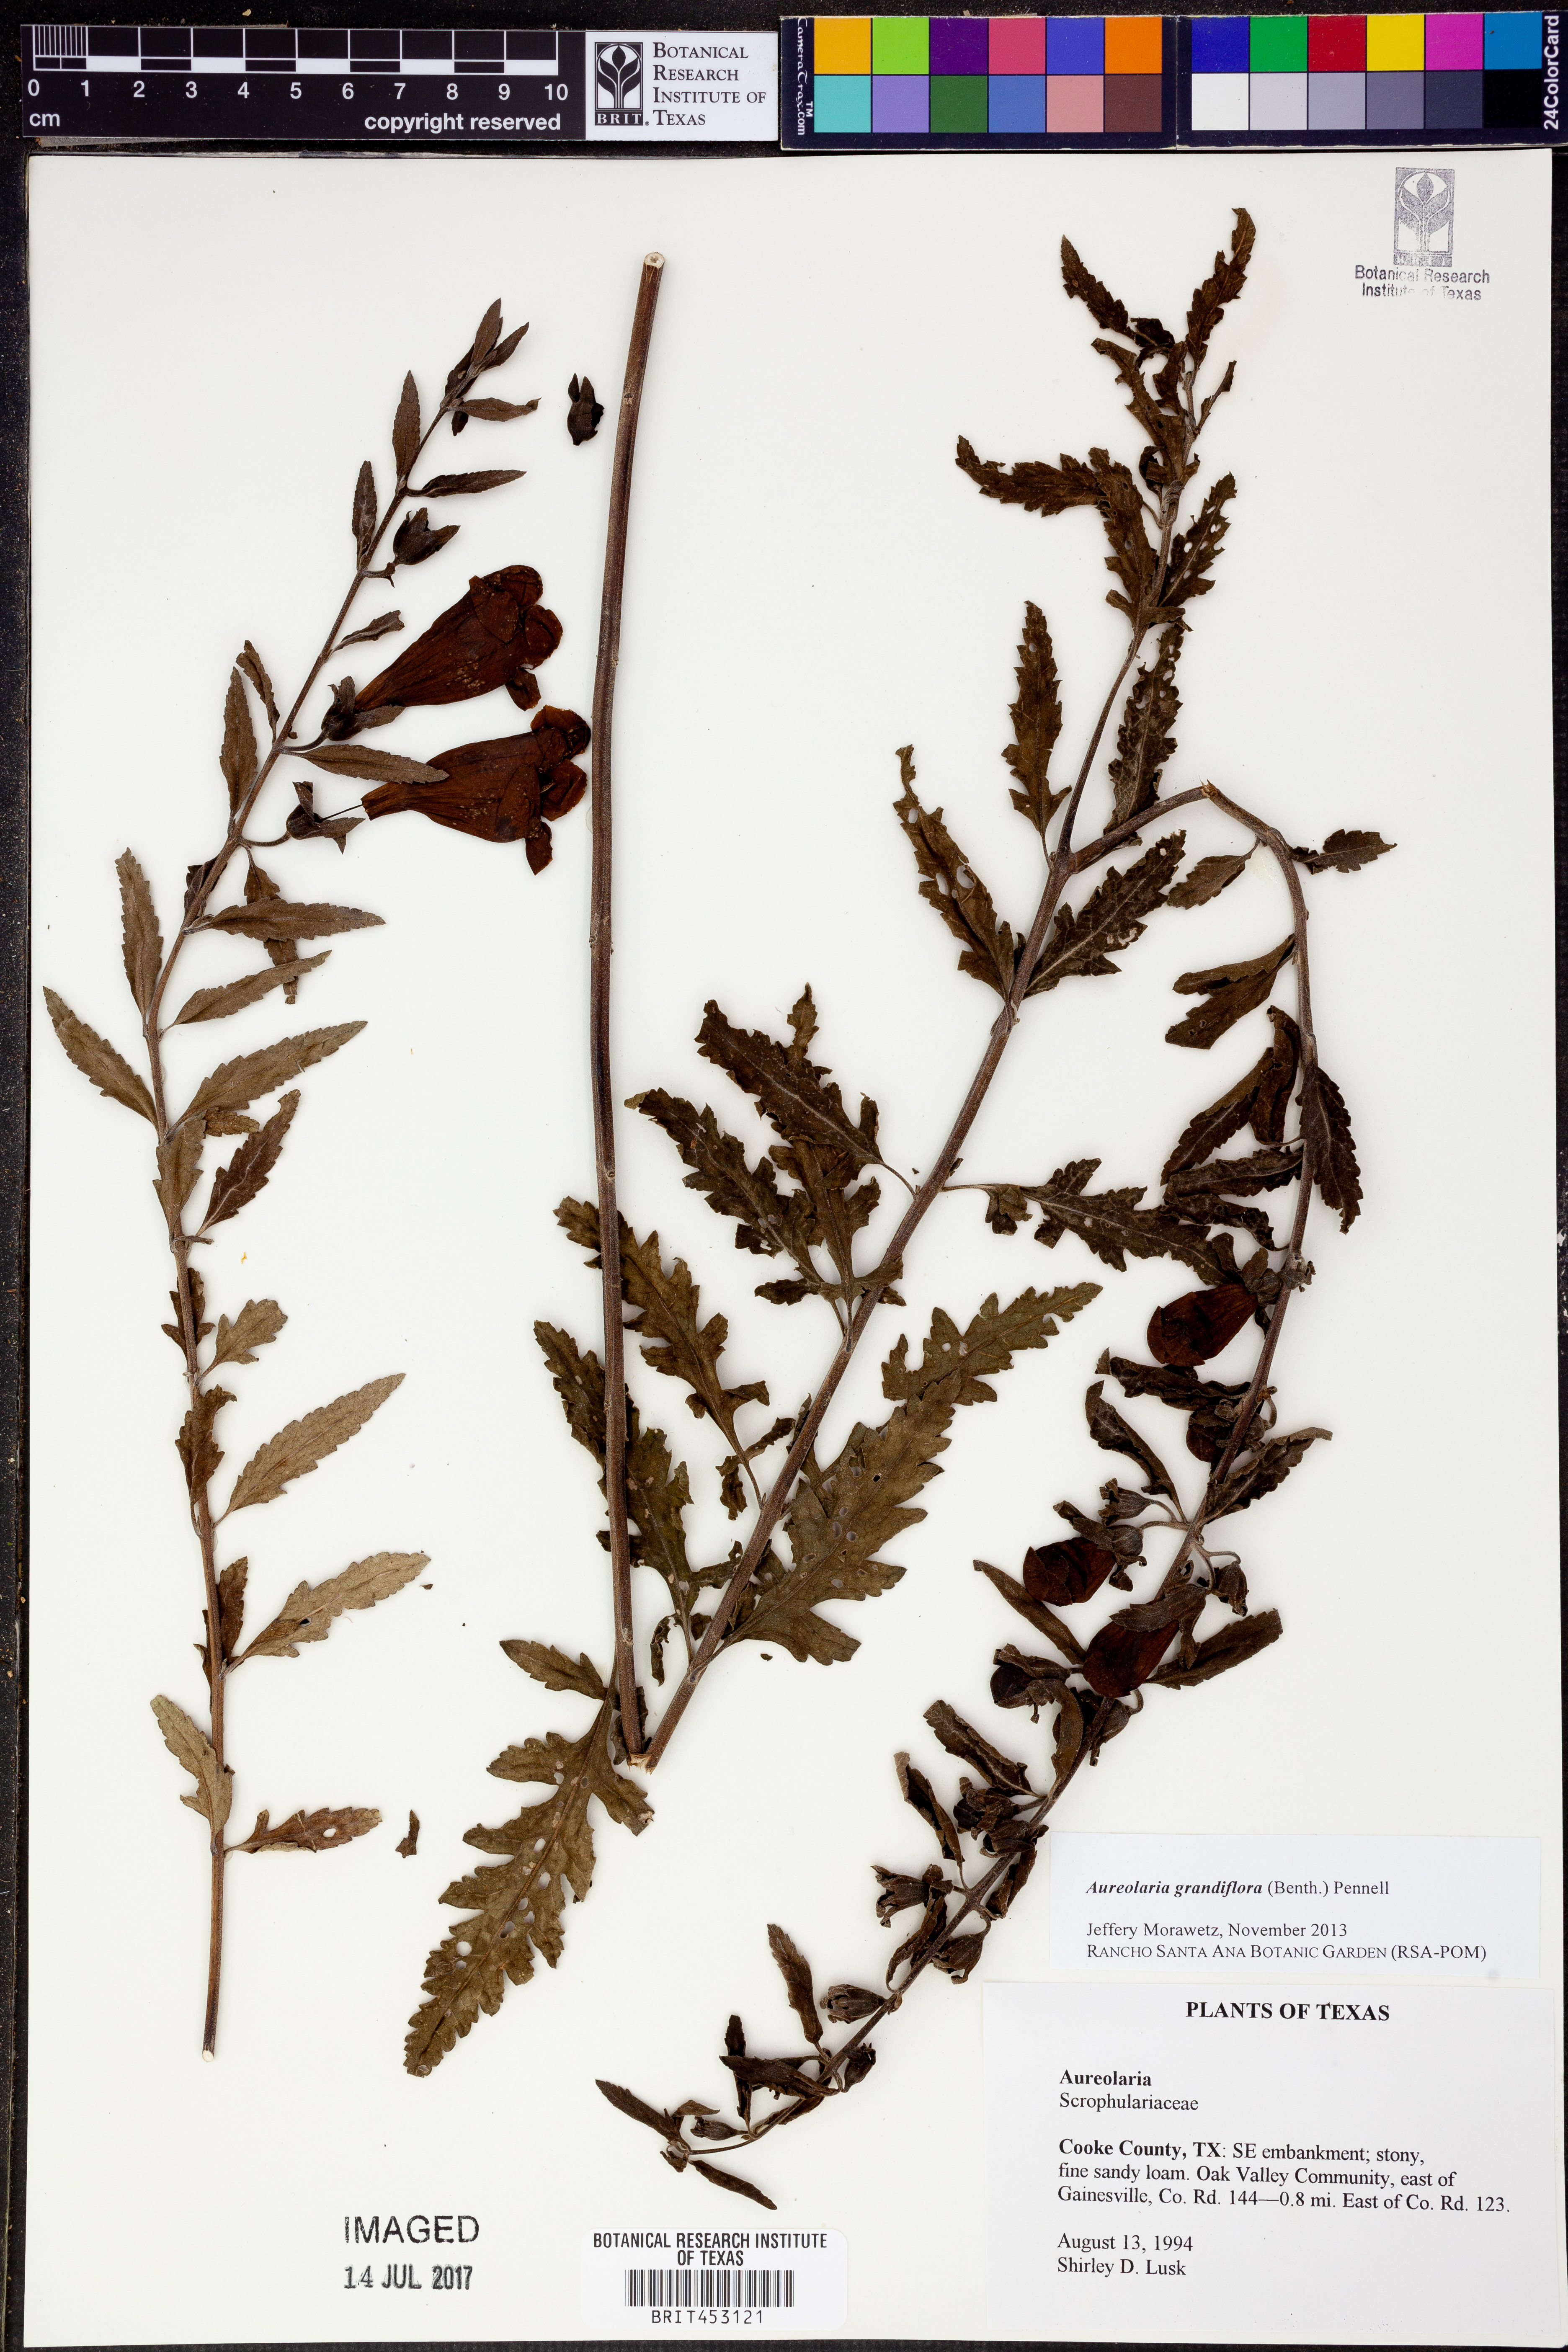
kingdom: Plantae
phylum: Tracheophyta
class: Magnoliopsida
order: Lamiales
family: Orobanchaceae
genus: Aureolaria
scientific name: Aureolaria grandiflora
